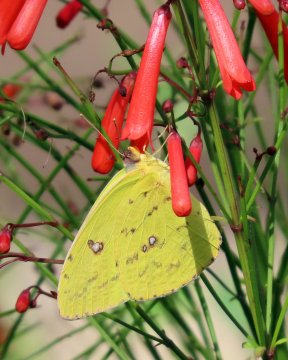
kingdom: Animalia
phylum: Arthropoda
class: Insecta
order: Lepidoptera
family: Pieridae
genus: Phoebis
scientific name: Phoebis sennae
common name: Cloudless Sulphur
